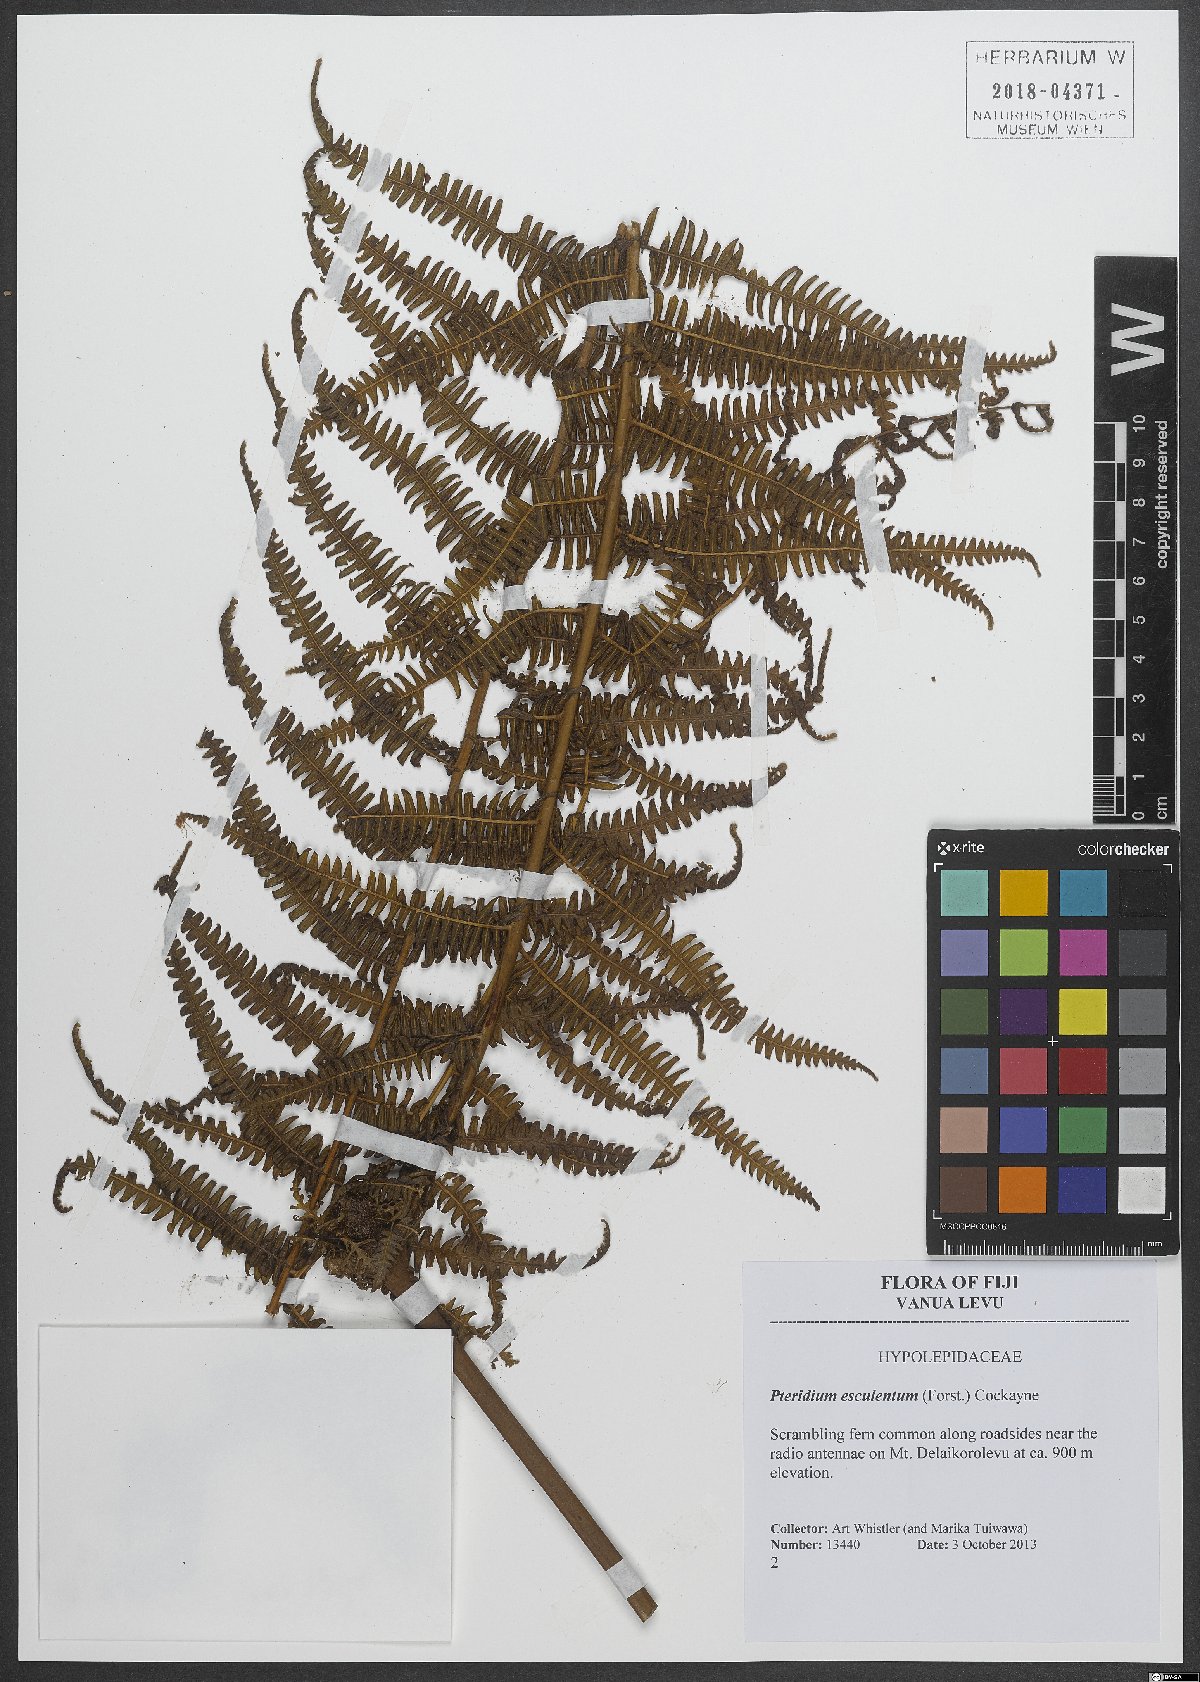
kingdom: Plantae
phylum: Tracheophyta
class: Polypodiopsida
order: Polypodiales
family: Dennstaedtiaceae
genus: Pteridium
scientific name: Pteridium esculentum
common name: Bracken fern
